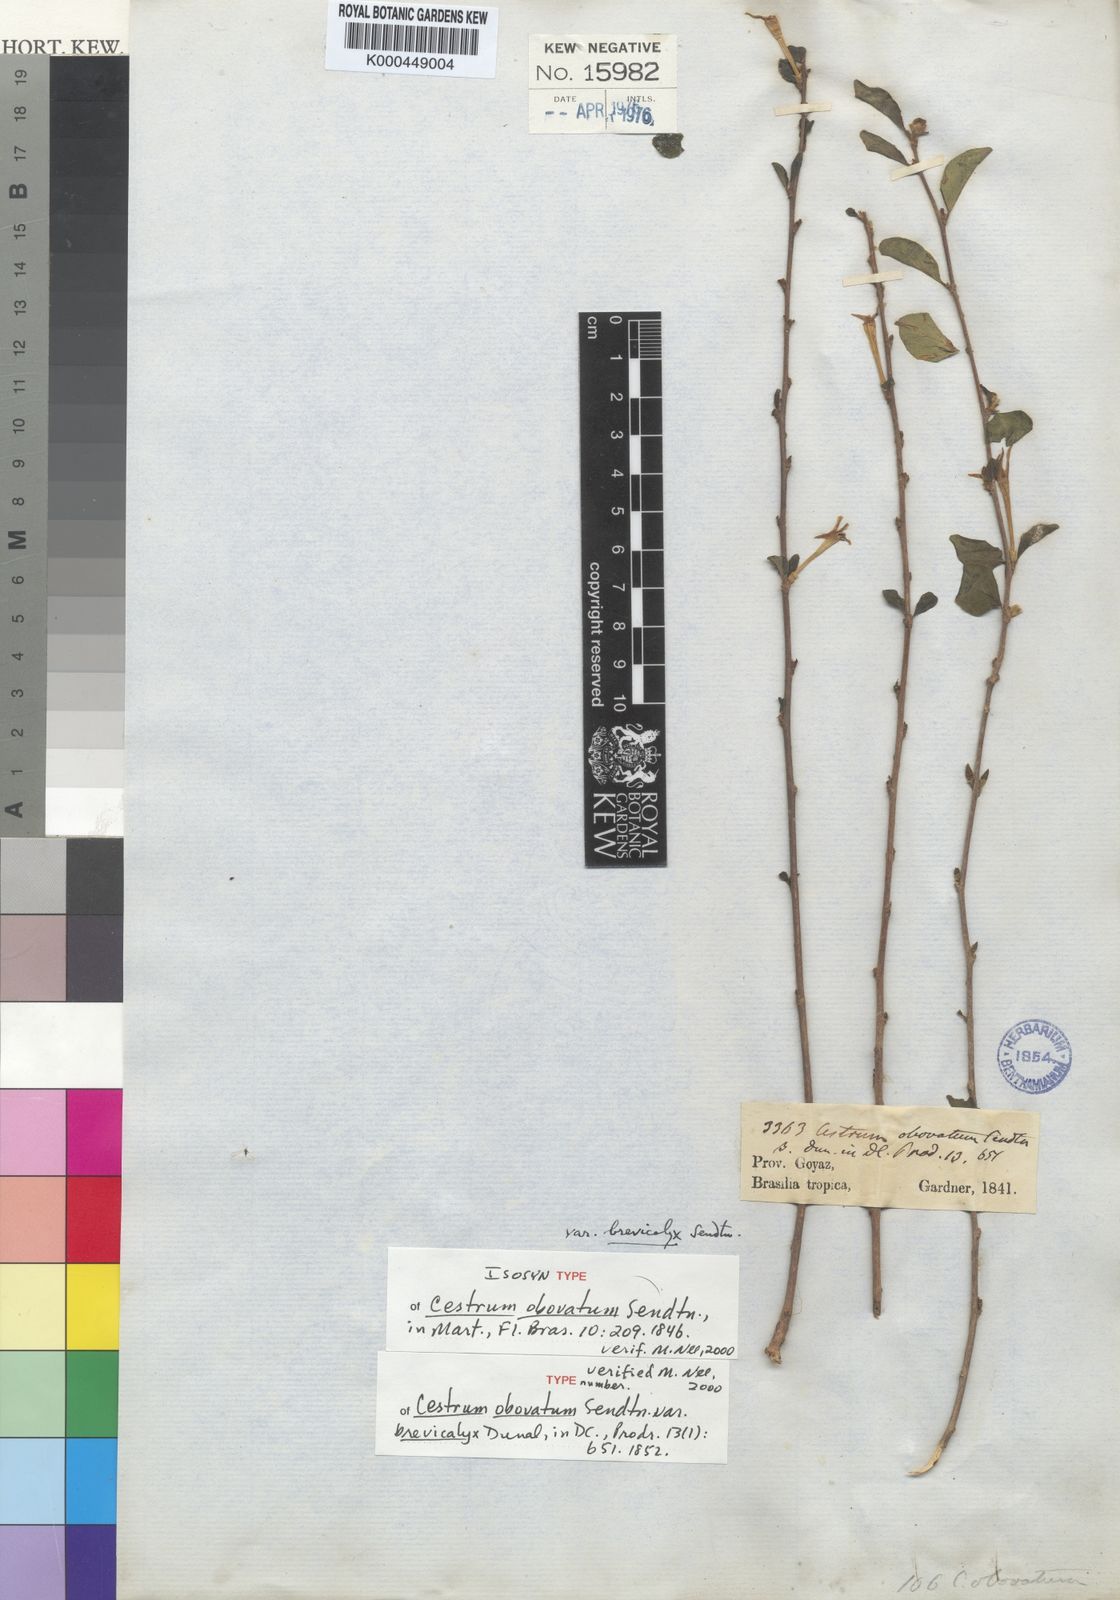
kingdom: Plantae
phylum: Tracheophyta
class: Magnoliopsida
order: Solanales
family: Solanaceae
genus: Cestrum
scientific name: Cestrum obovatum
